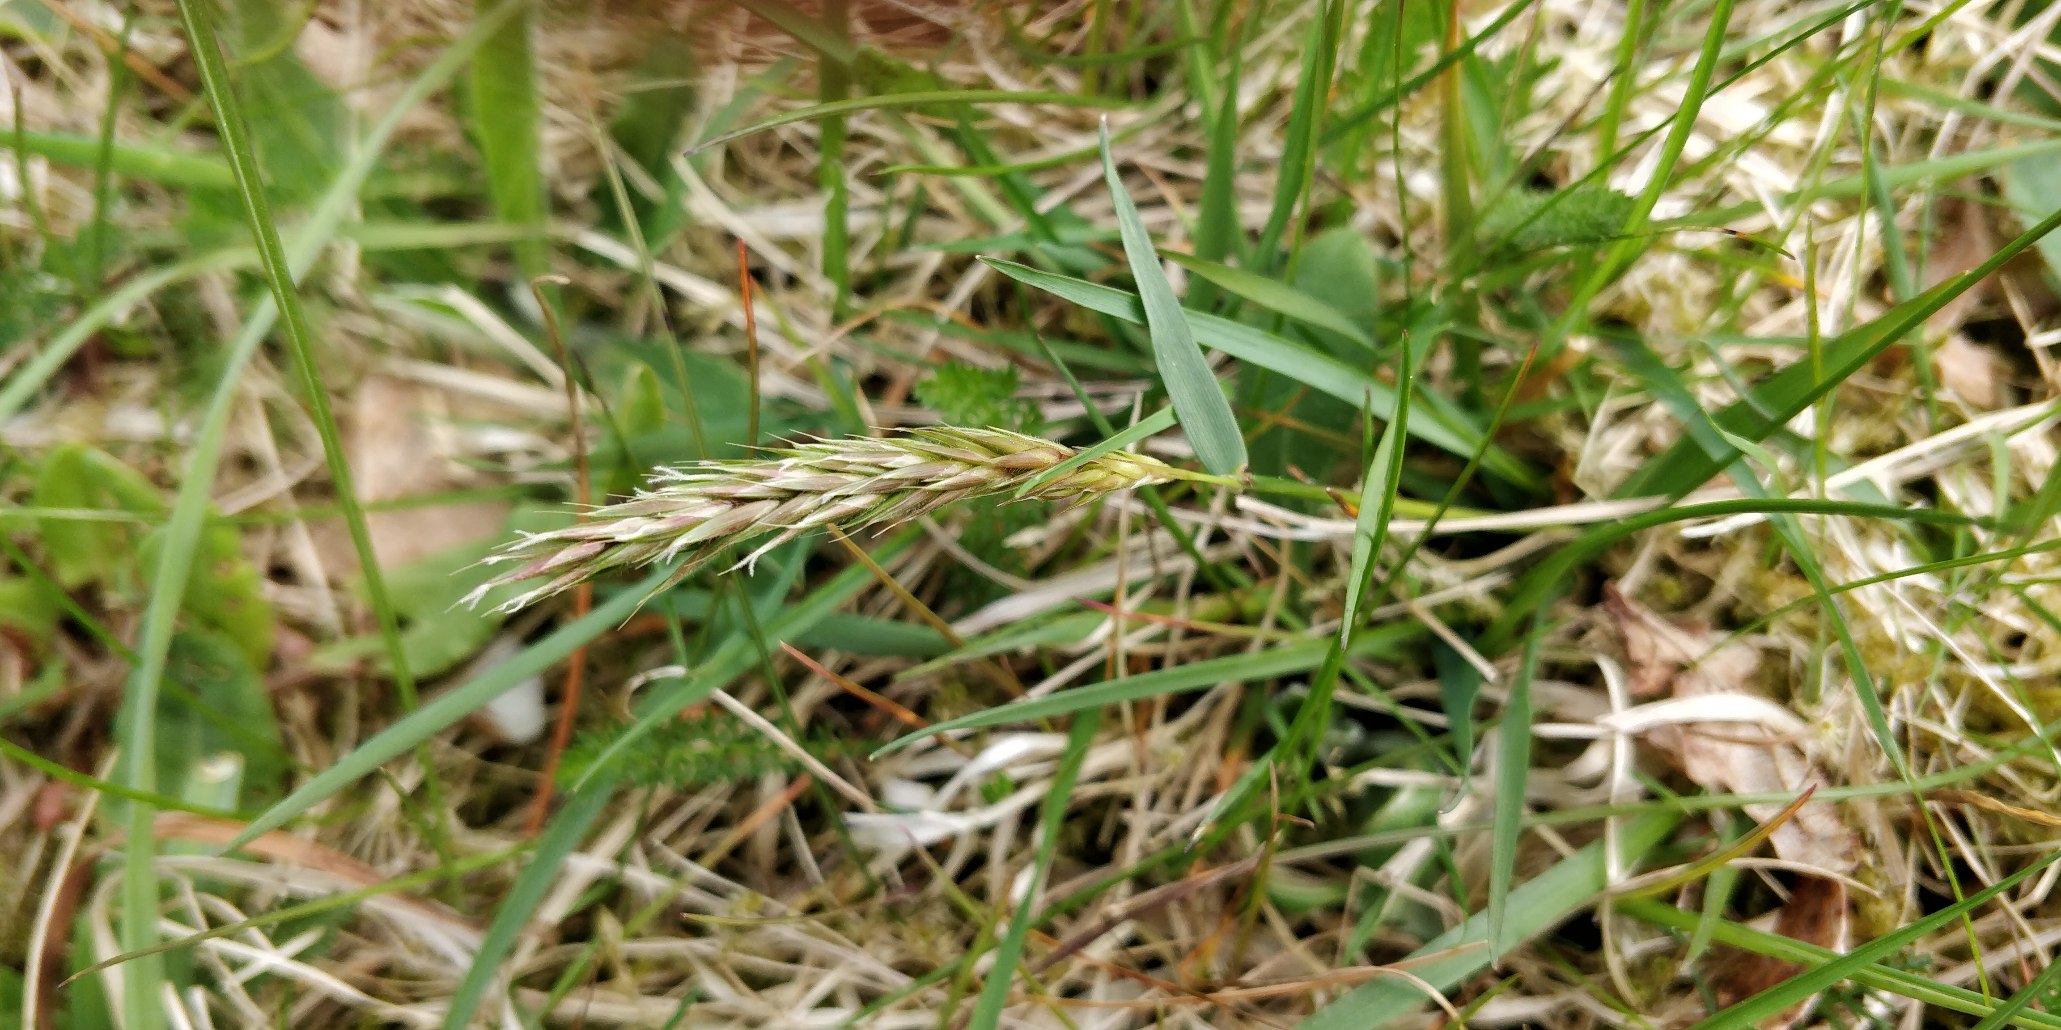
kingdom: Plantae
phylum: Tracheophyta
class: Liliopsida
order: Poales
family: Poaceae
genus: Anthoxanthum
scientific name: Anthoxanthum odoratum
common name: Vellugtende gulaks
